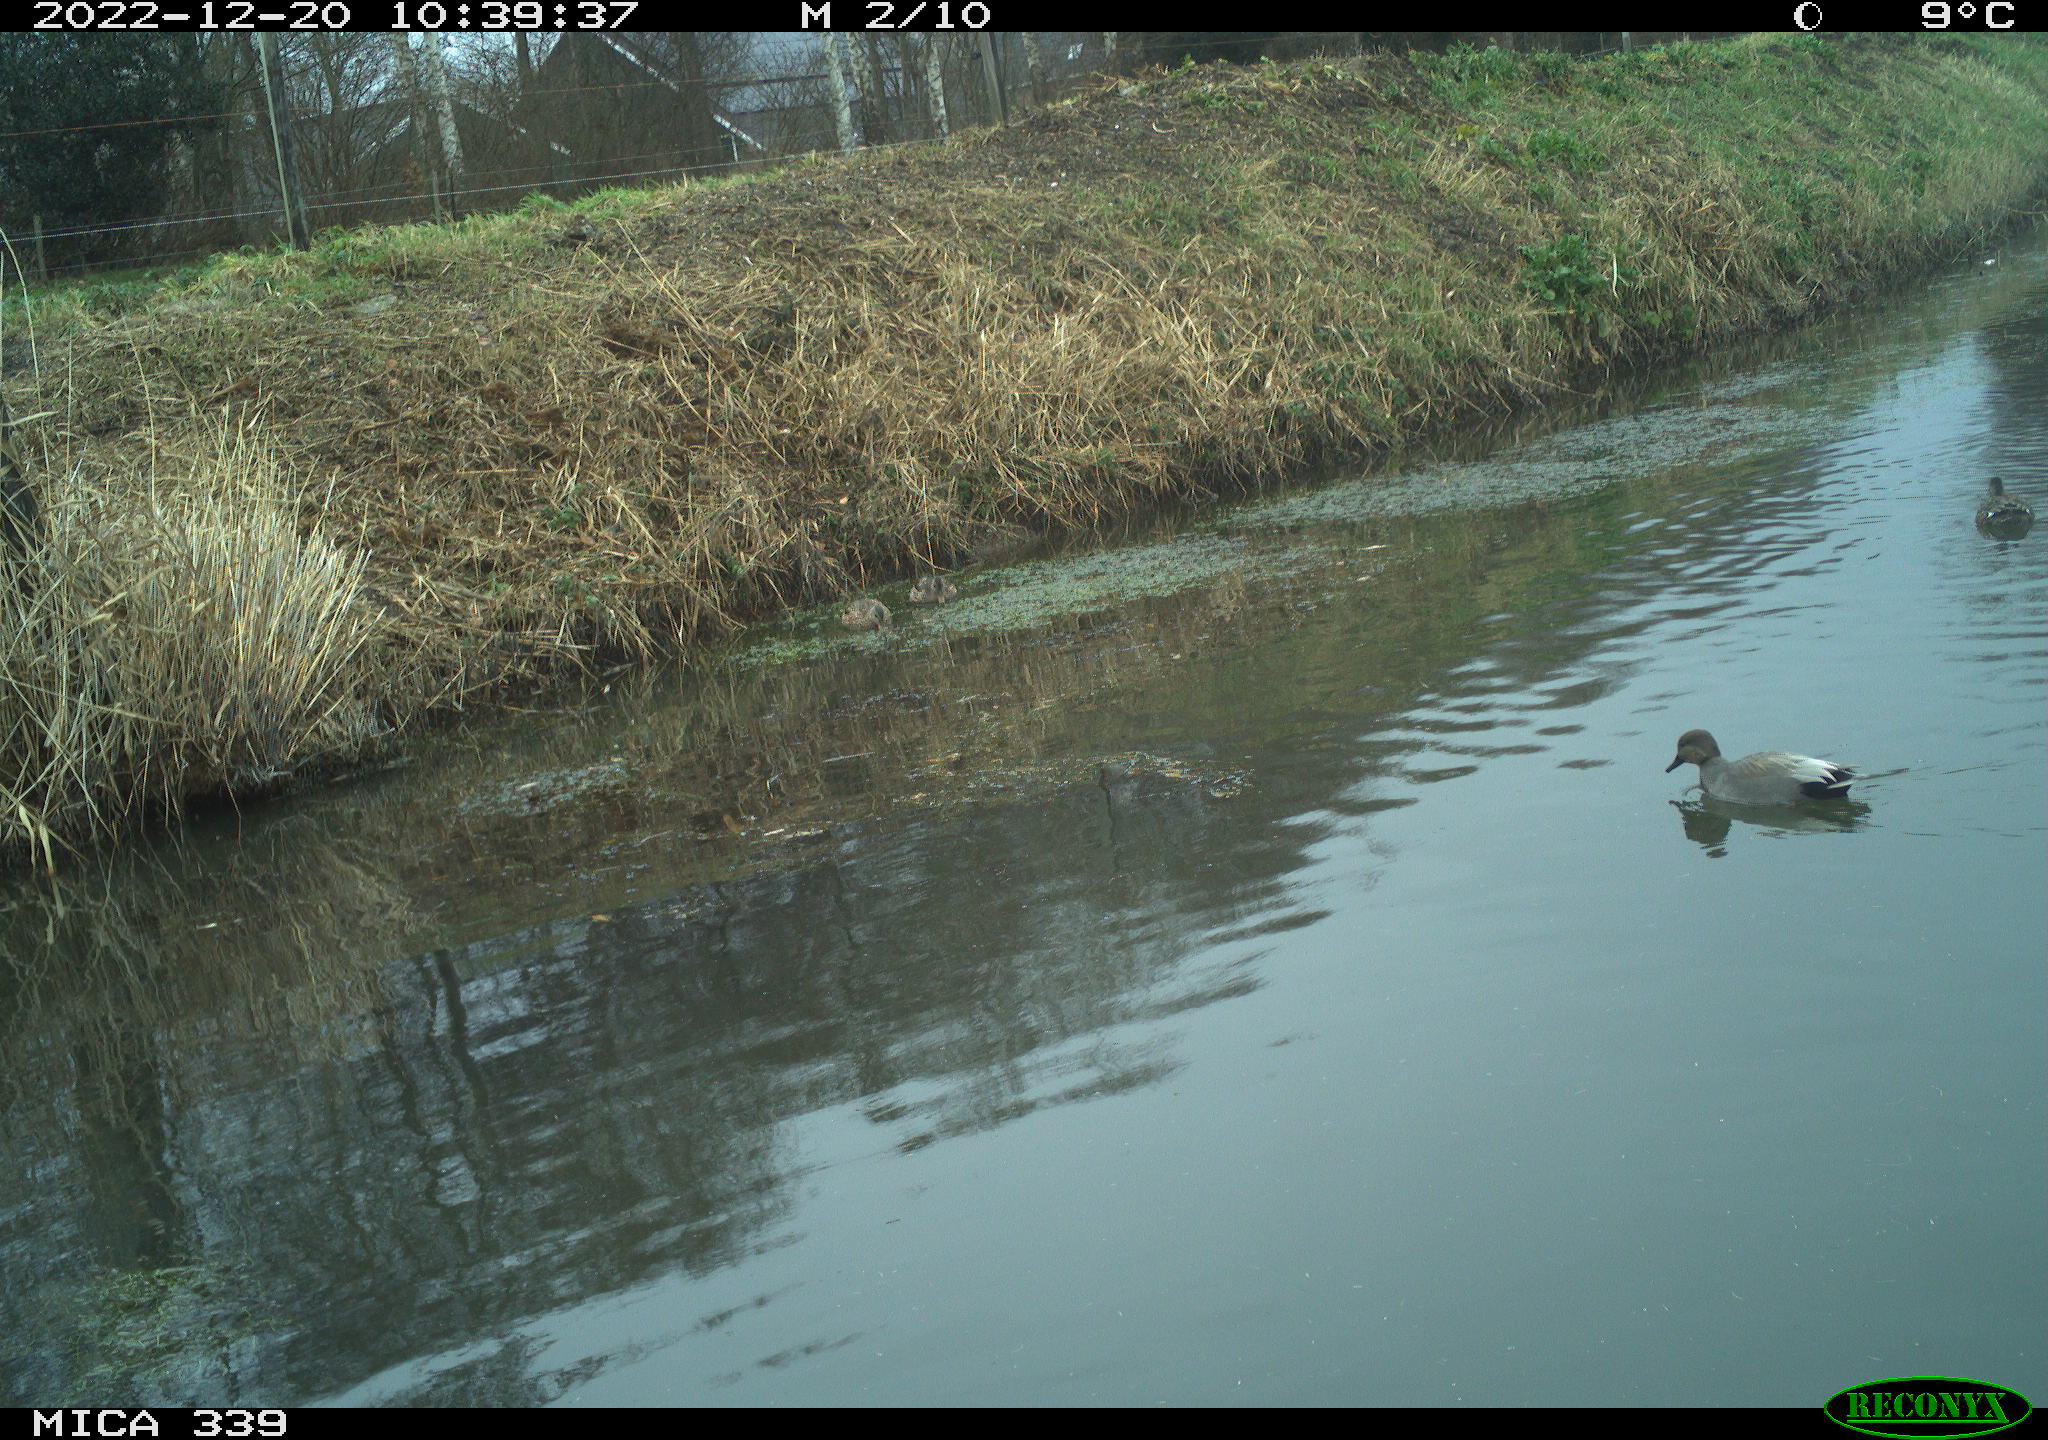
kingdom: Animalia
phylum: Chordata
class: Aves
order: Anseriformes
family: Anatidae
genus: Anas
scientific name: Anas
